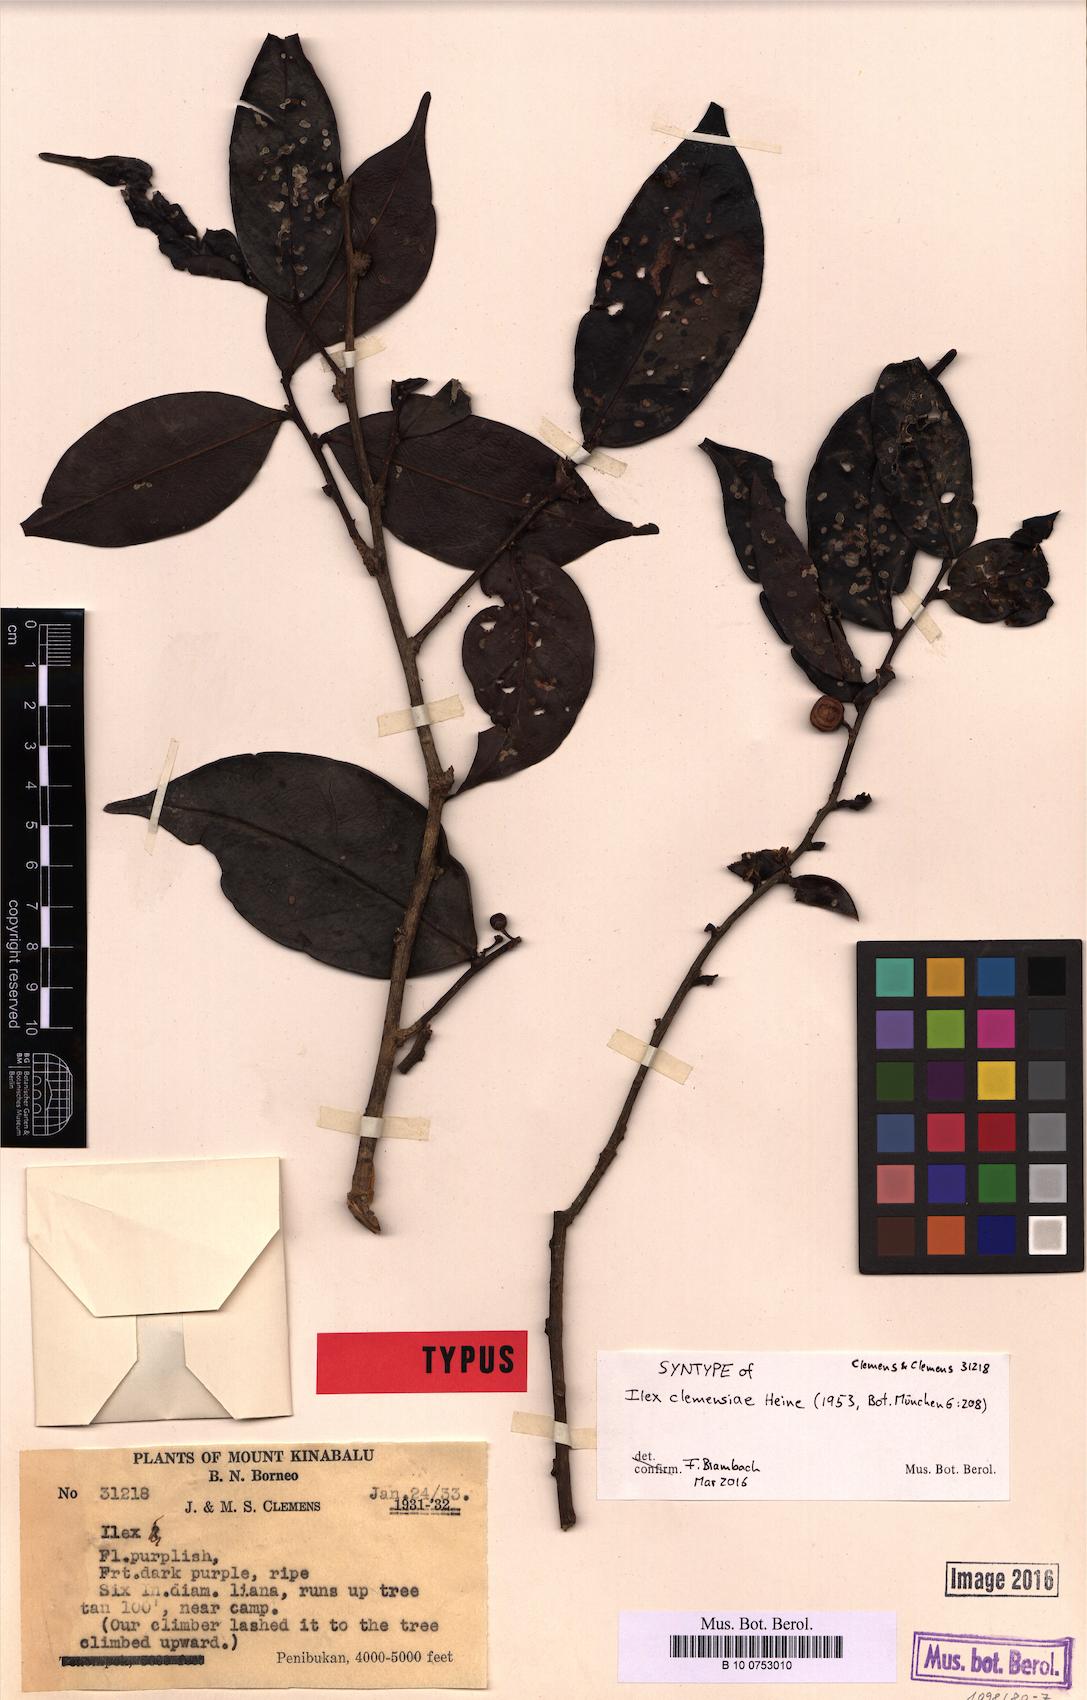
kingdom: Plantae
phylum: Tracheophyta
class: Magnoliopsida
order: Aquifoliales
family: Aquifoliaceae
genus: Ilex
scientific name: Ilex
